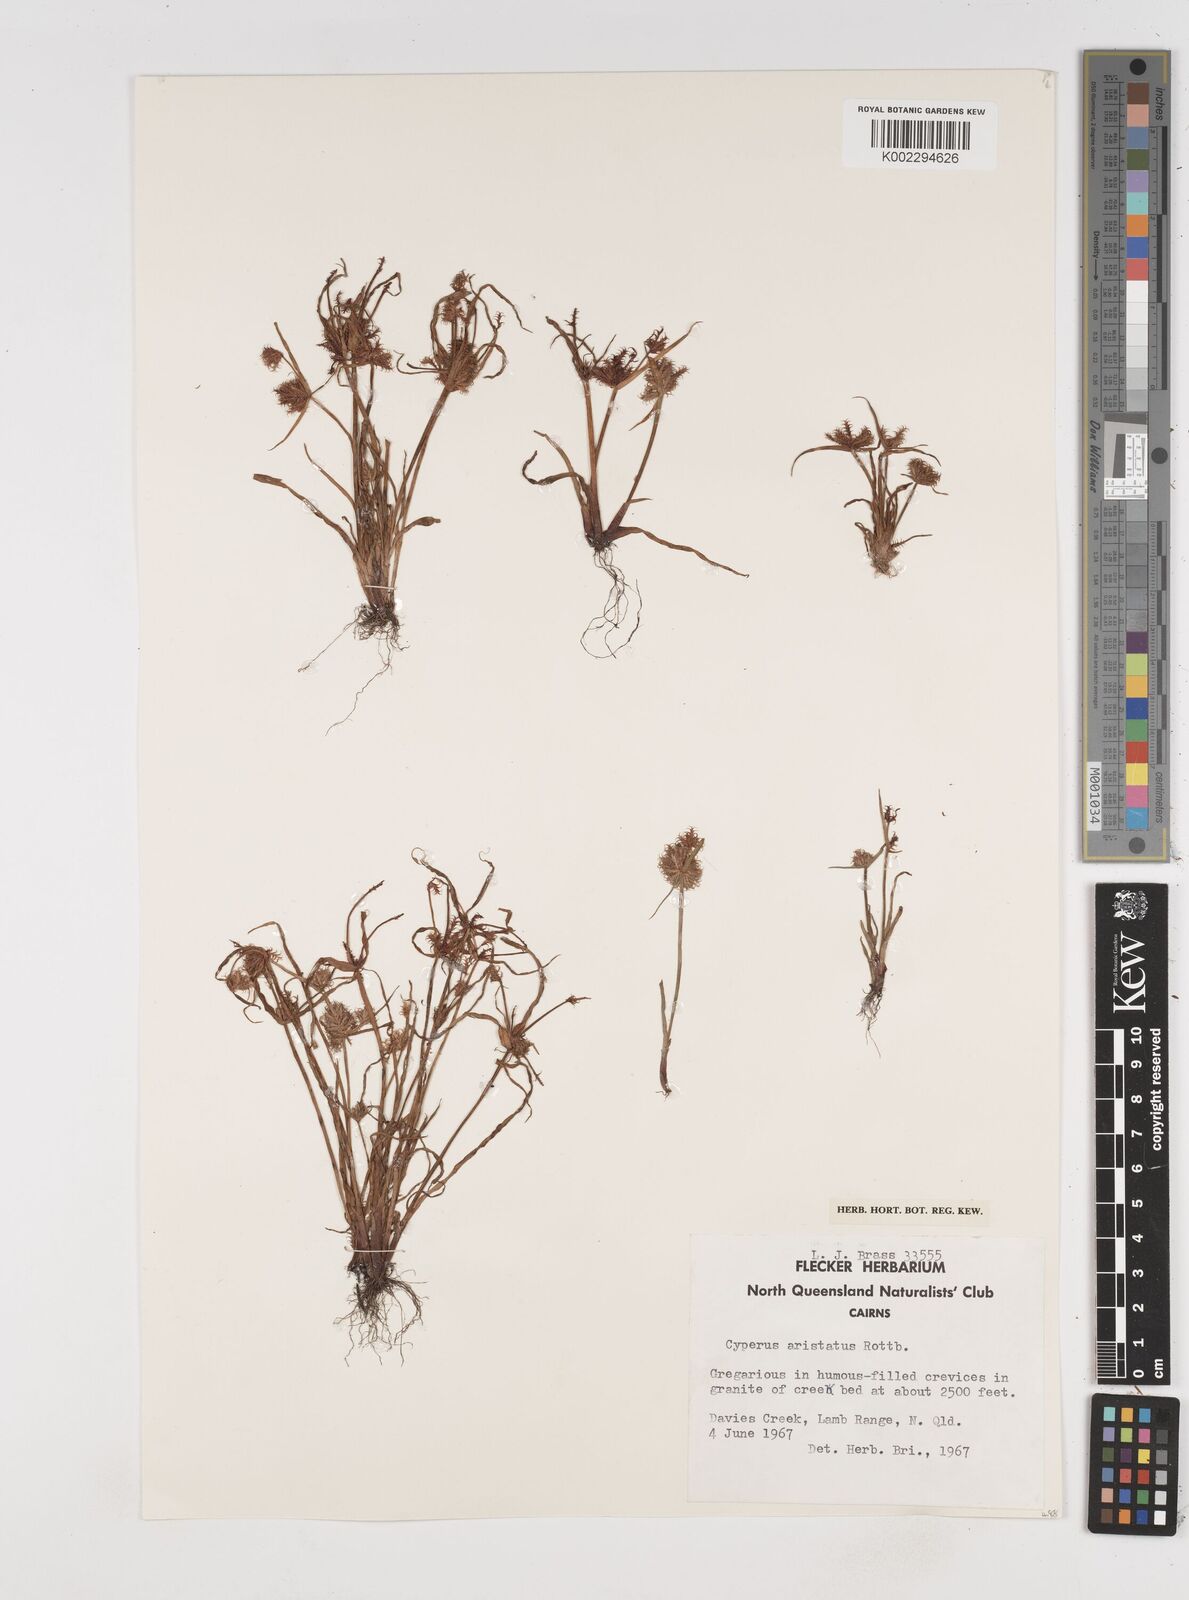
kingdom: Plantae
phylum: Tracheophyta
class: Liliopsida
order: Poales
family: Cyperaceae
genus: Cyperus
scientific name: Cyperus squarrosus
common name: Awned cyperus
